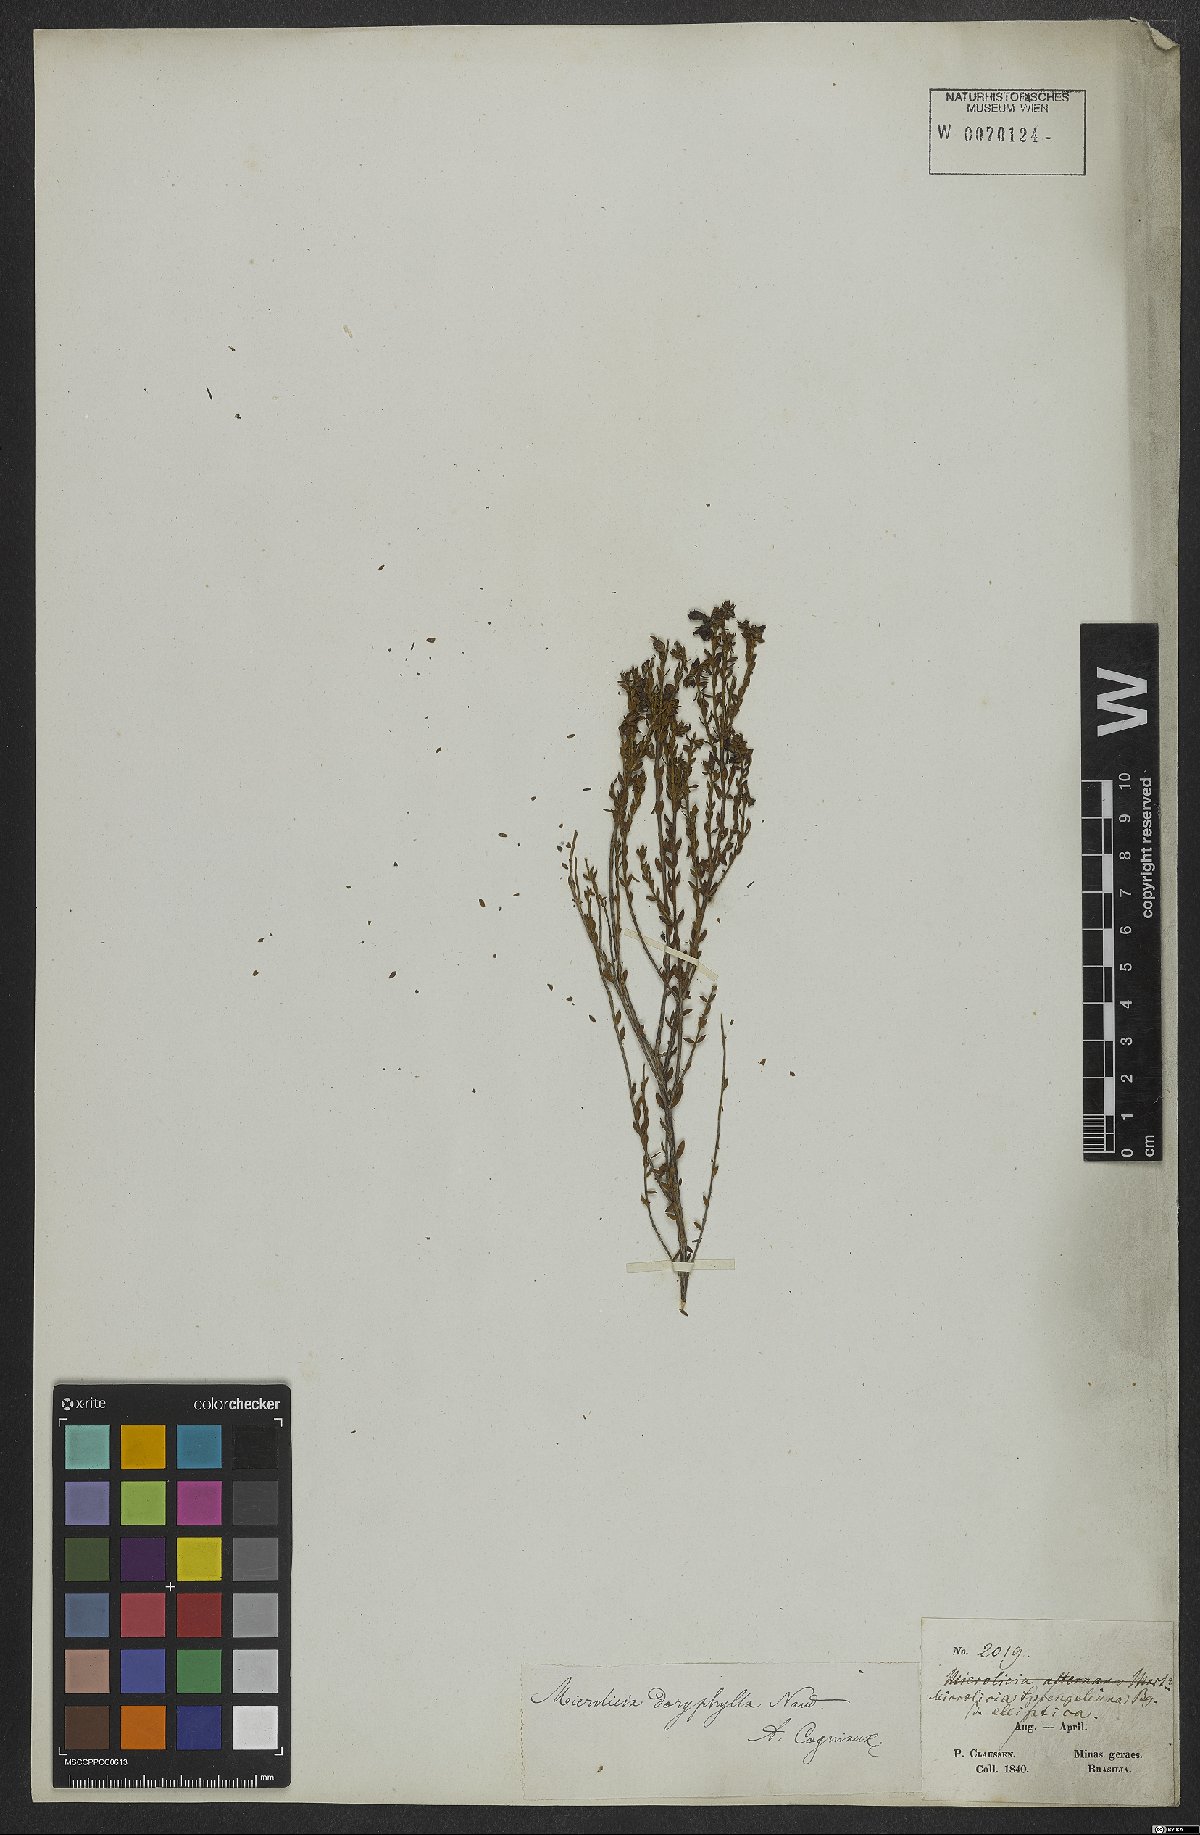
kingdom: Plantae
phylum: Tracheophyta
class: Magnoliopsida
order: Myrtales
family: Melastomataceae
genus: Microlicia
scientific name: Microlicia doryphylla
